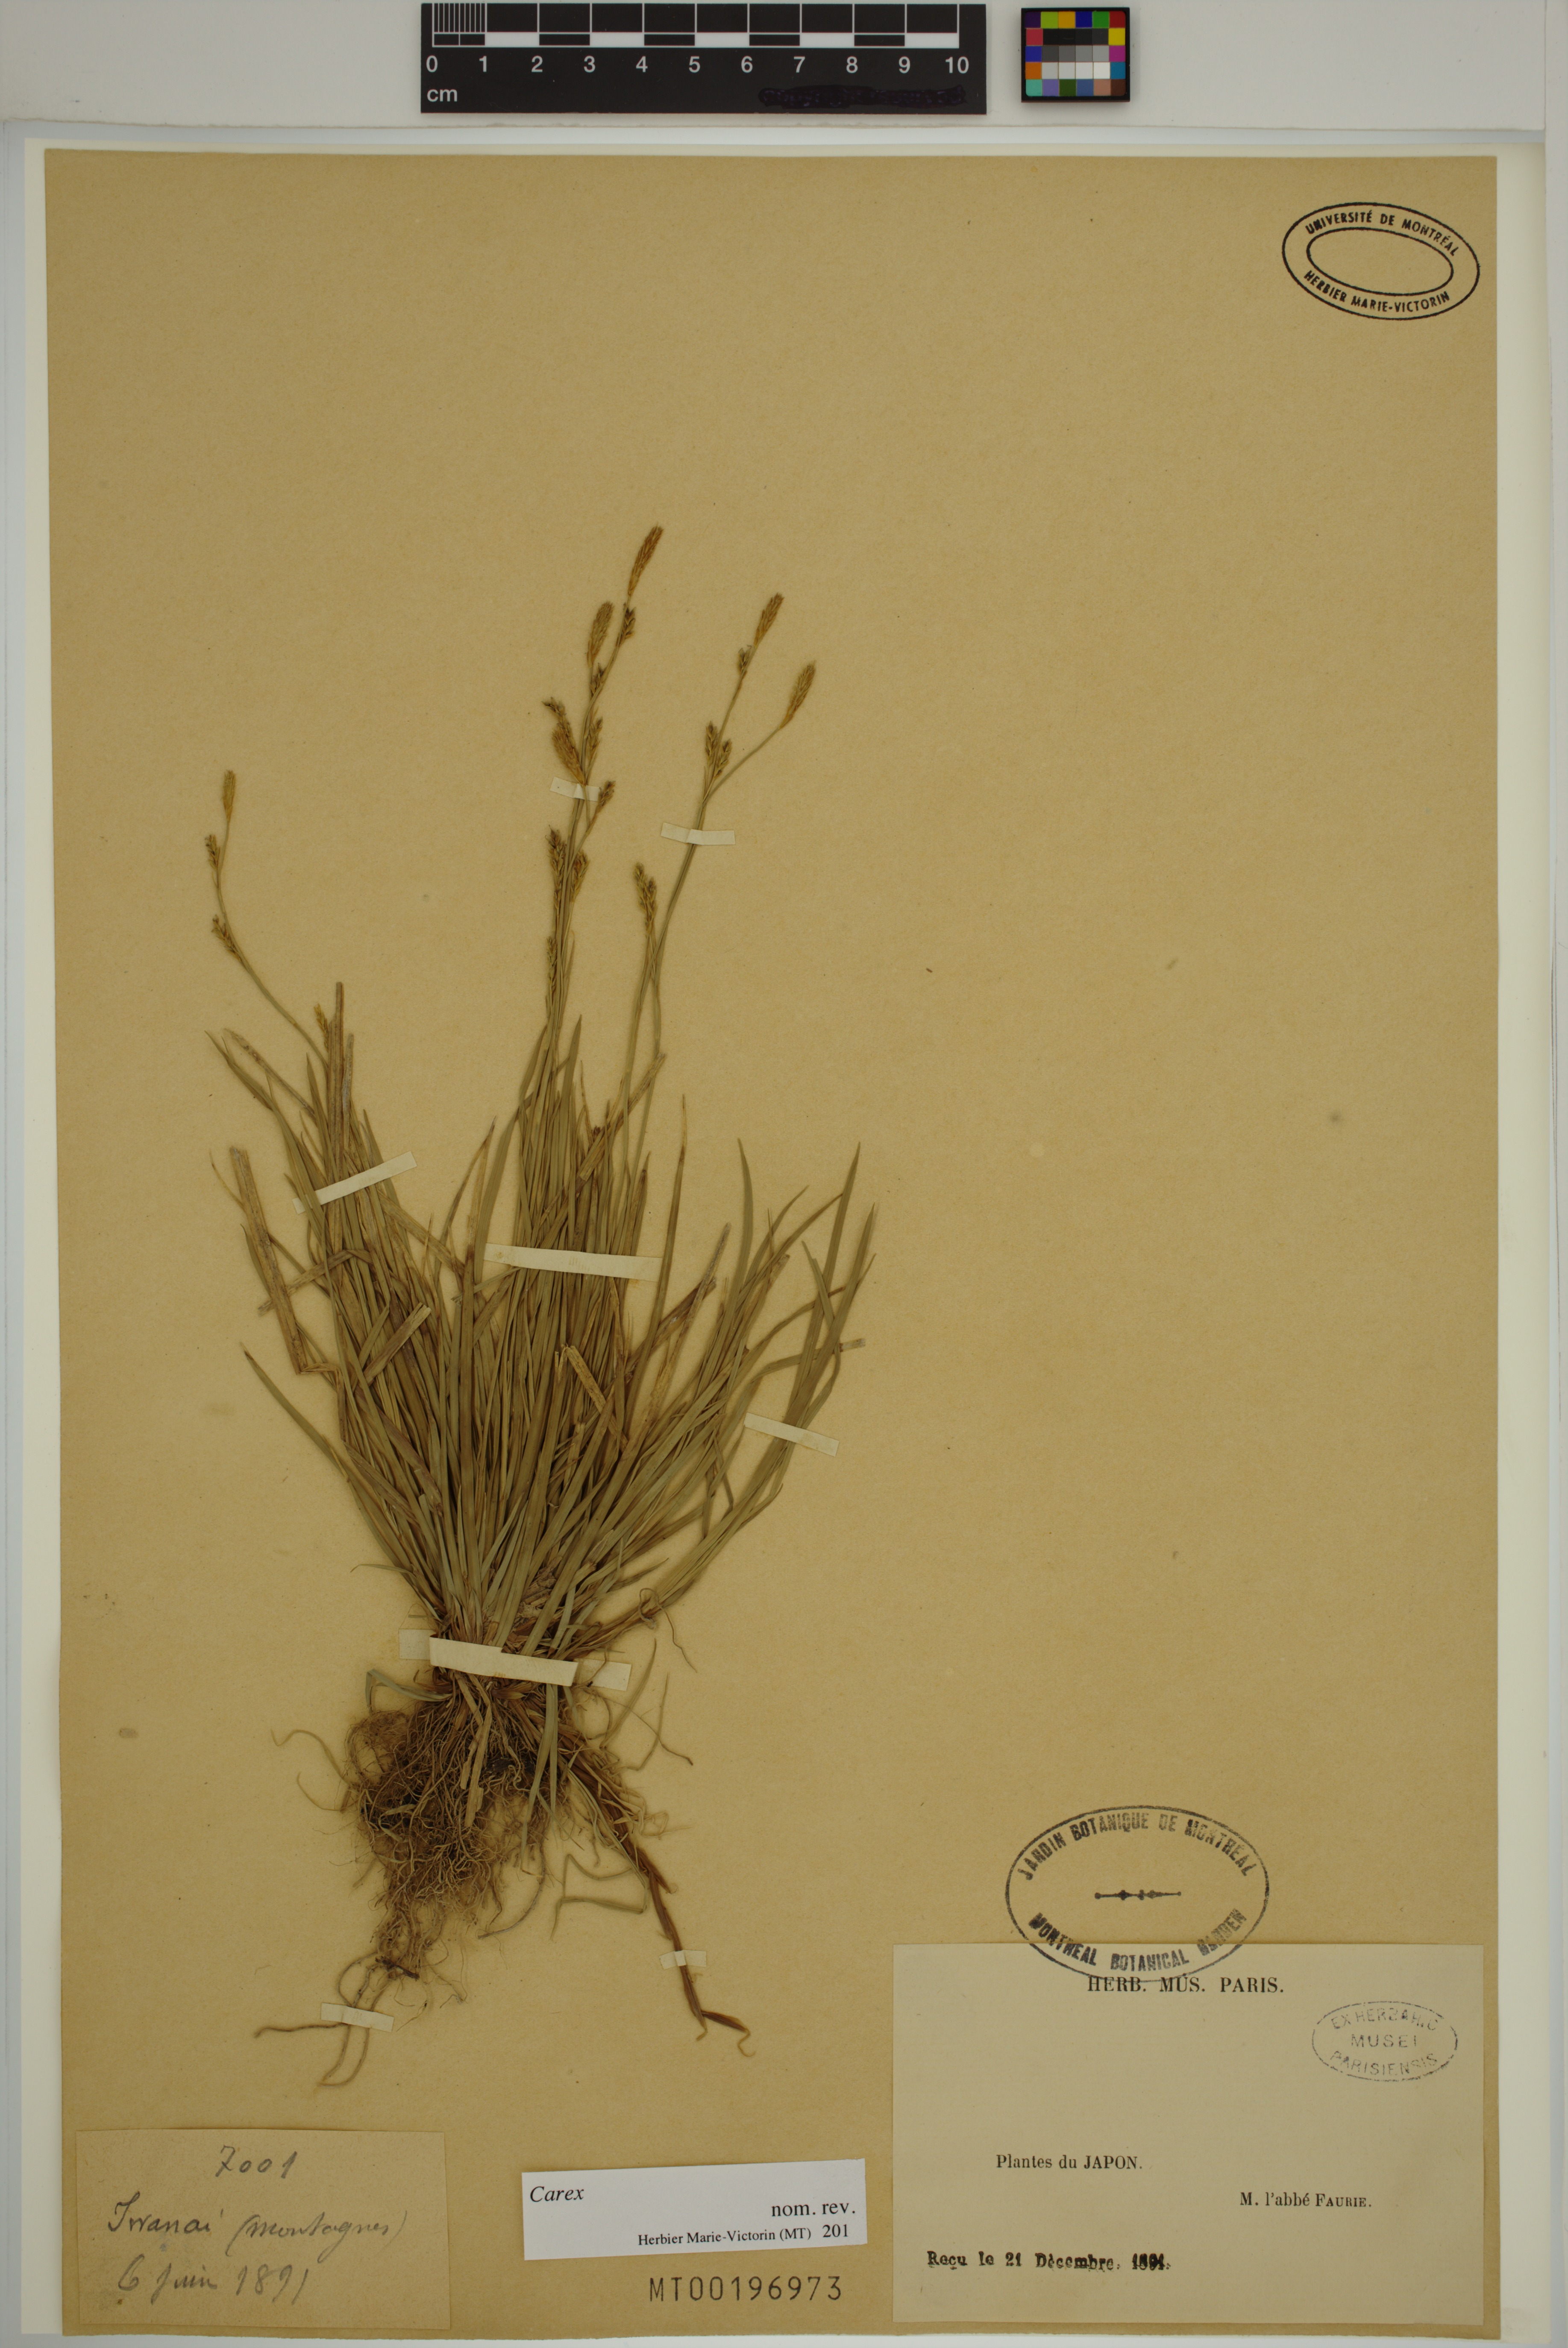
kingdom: Plantae
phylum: Tracheophyta
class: Liliopsida
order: Poales
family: Cyperaceae
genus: Carex
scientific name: Carex
